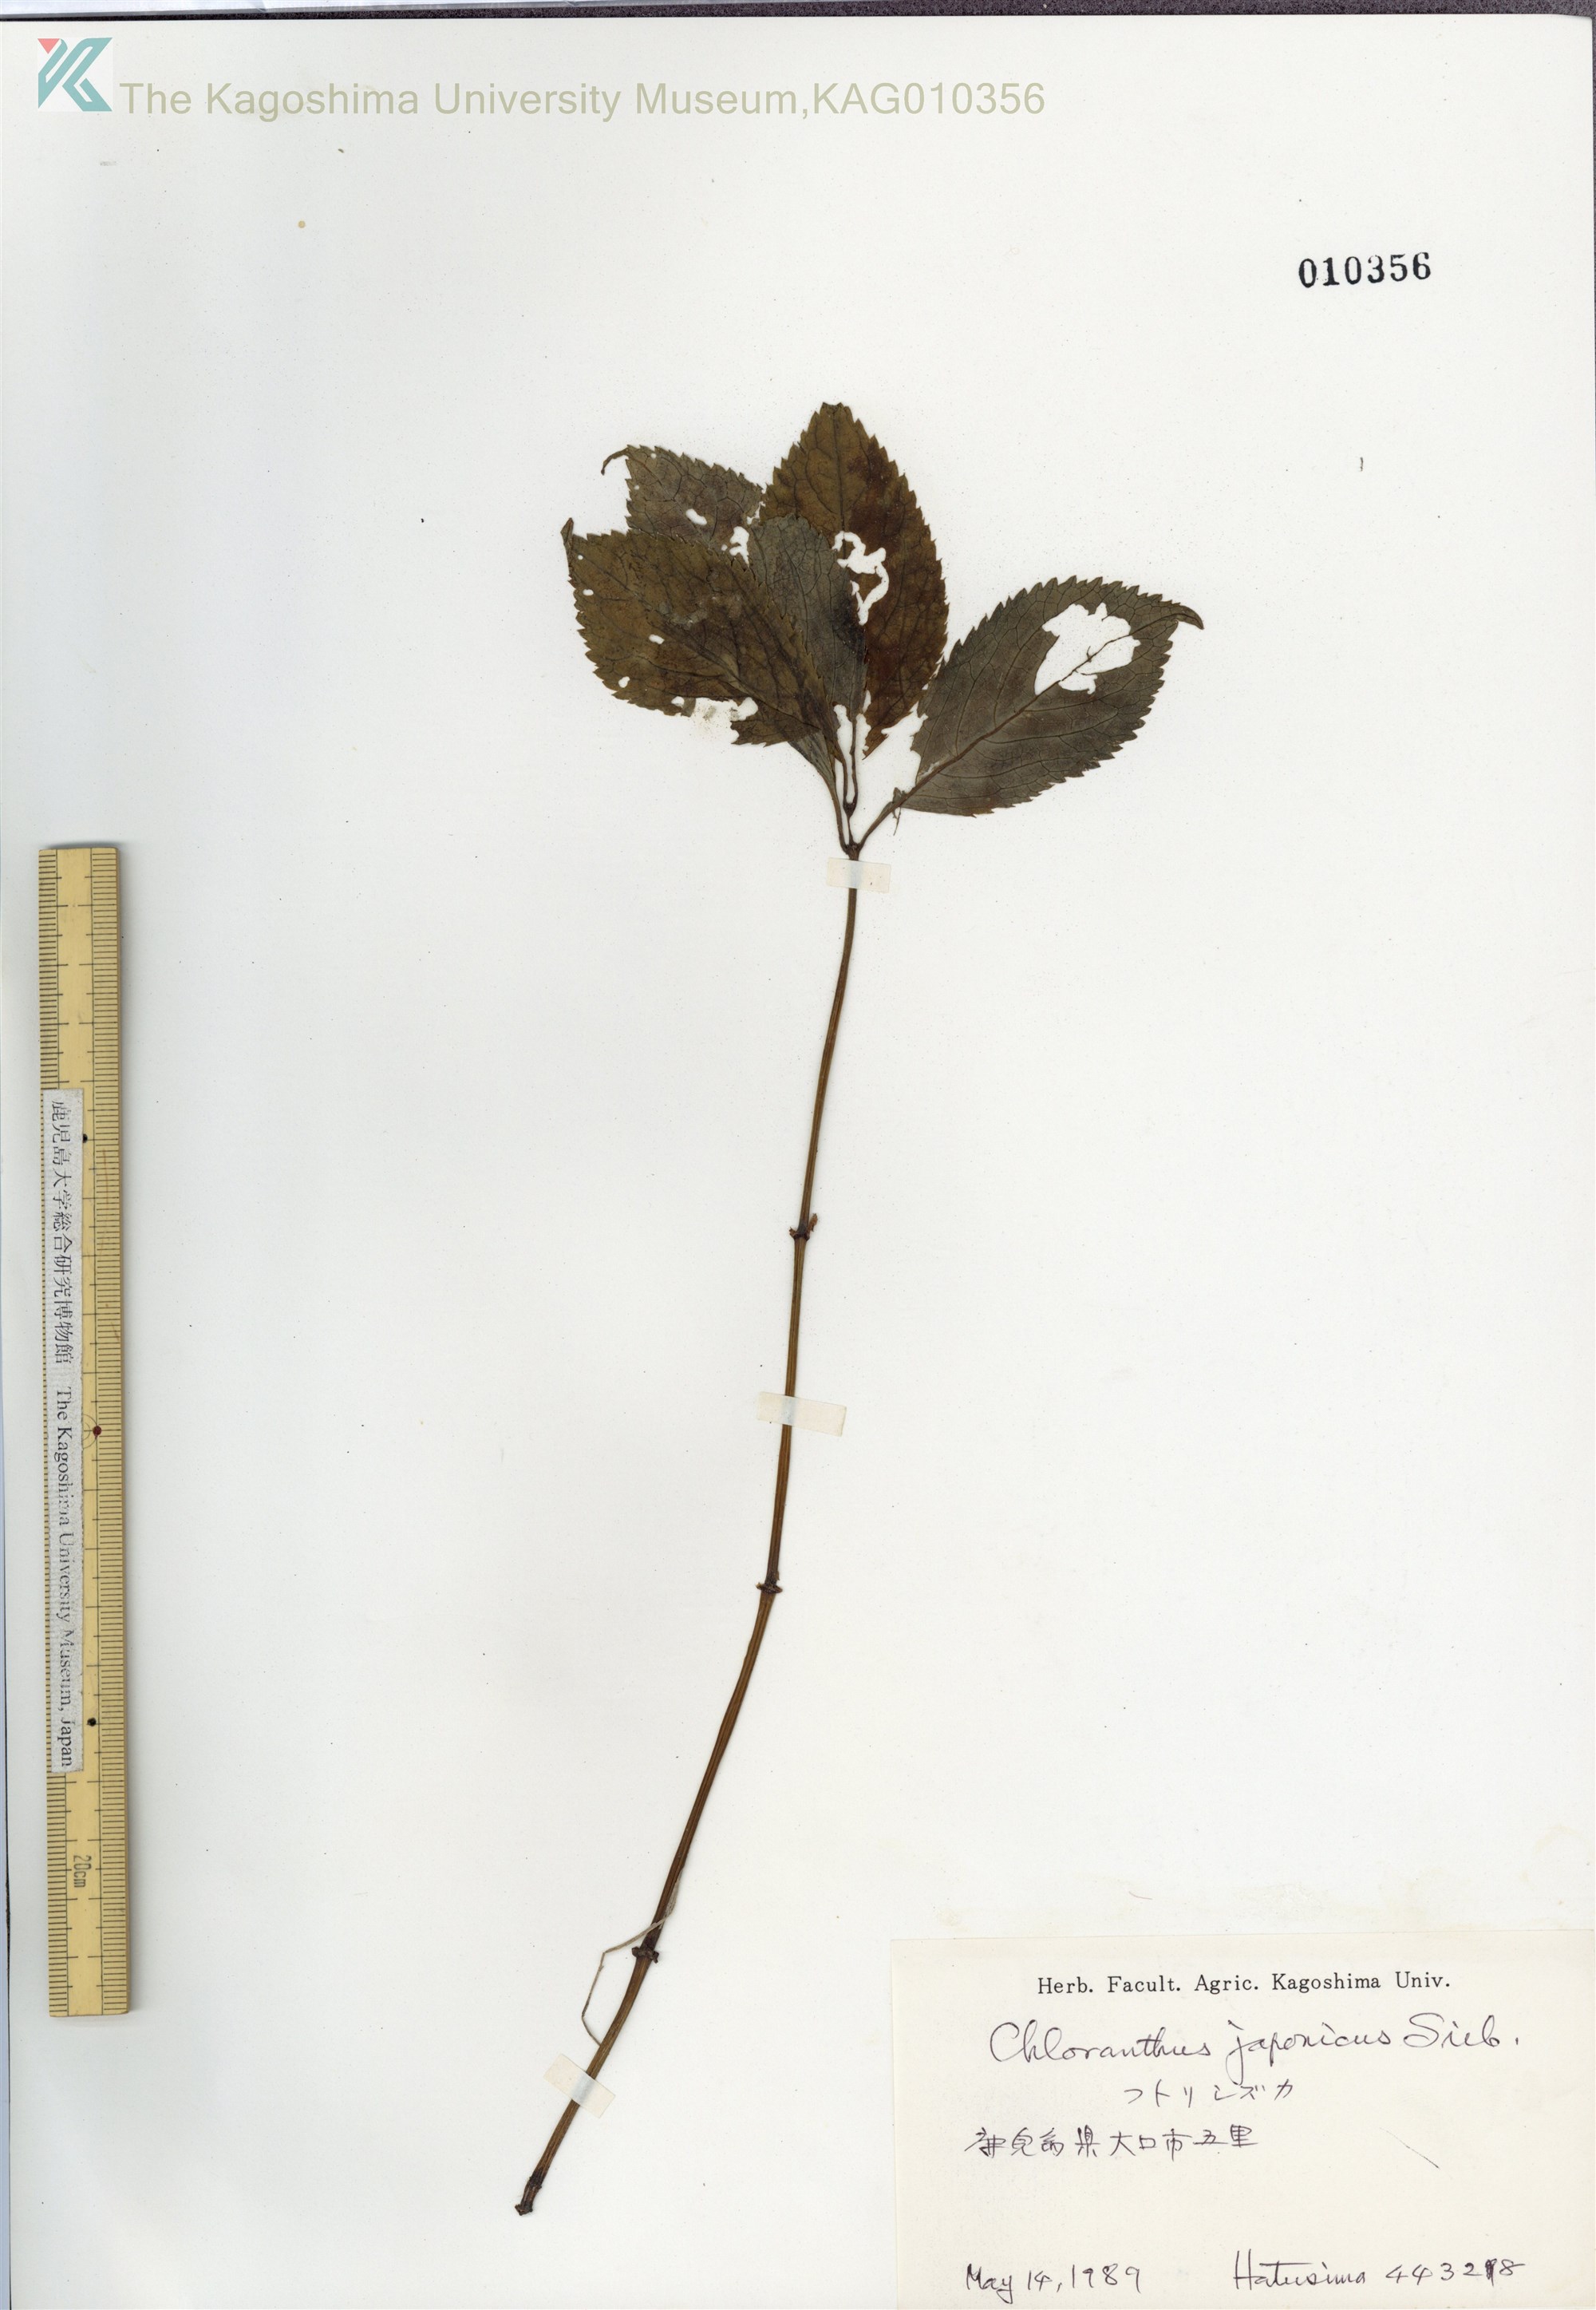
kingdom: Plantae
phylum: Tracheophyta
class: Magnoliopsida
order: Chloranthales
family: Chloranthaceae
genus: Chloranthus
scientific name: Chloranthus japonicus
